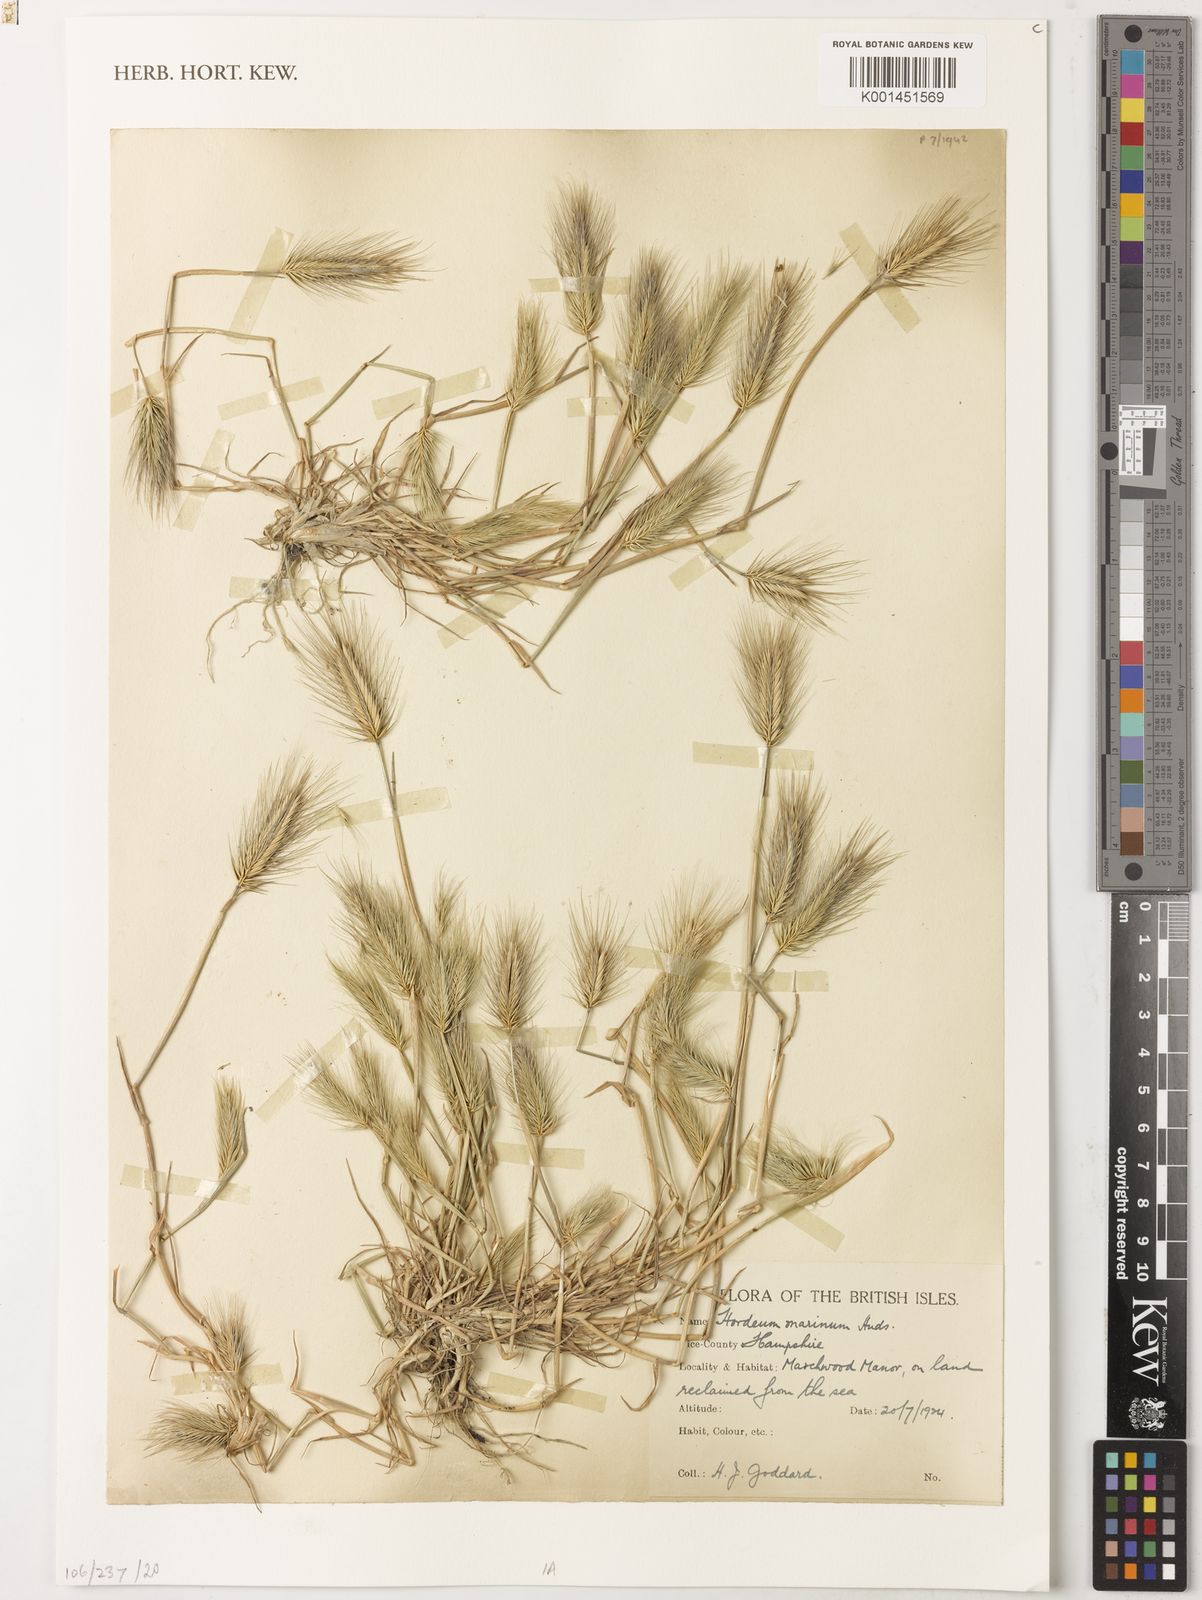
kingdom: Plantae
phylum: Tracheophyta
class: Liliopsida
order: Poales
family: Poaceae
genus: Hordeum
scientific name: Hordeum marinum
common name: Sea barley
